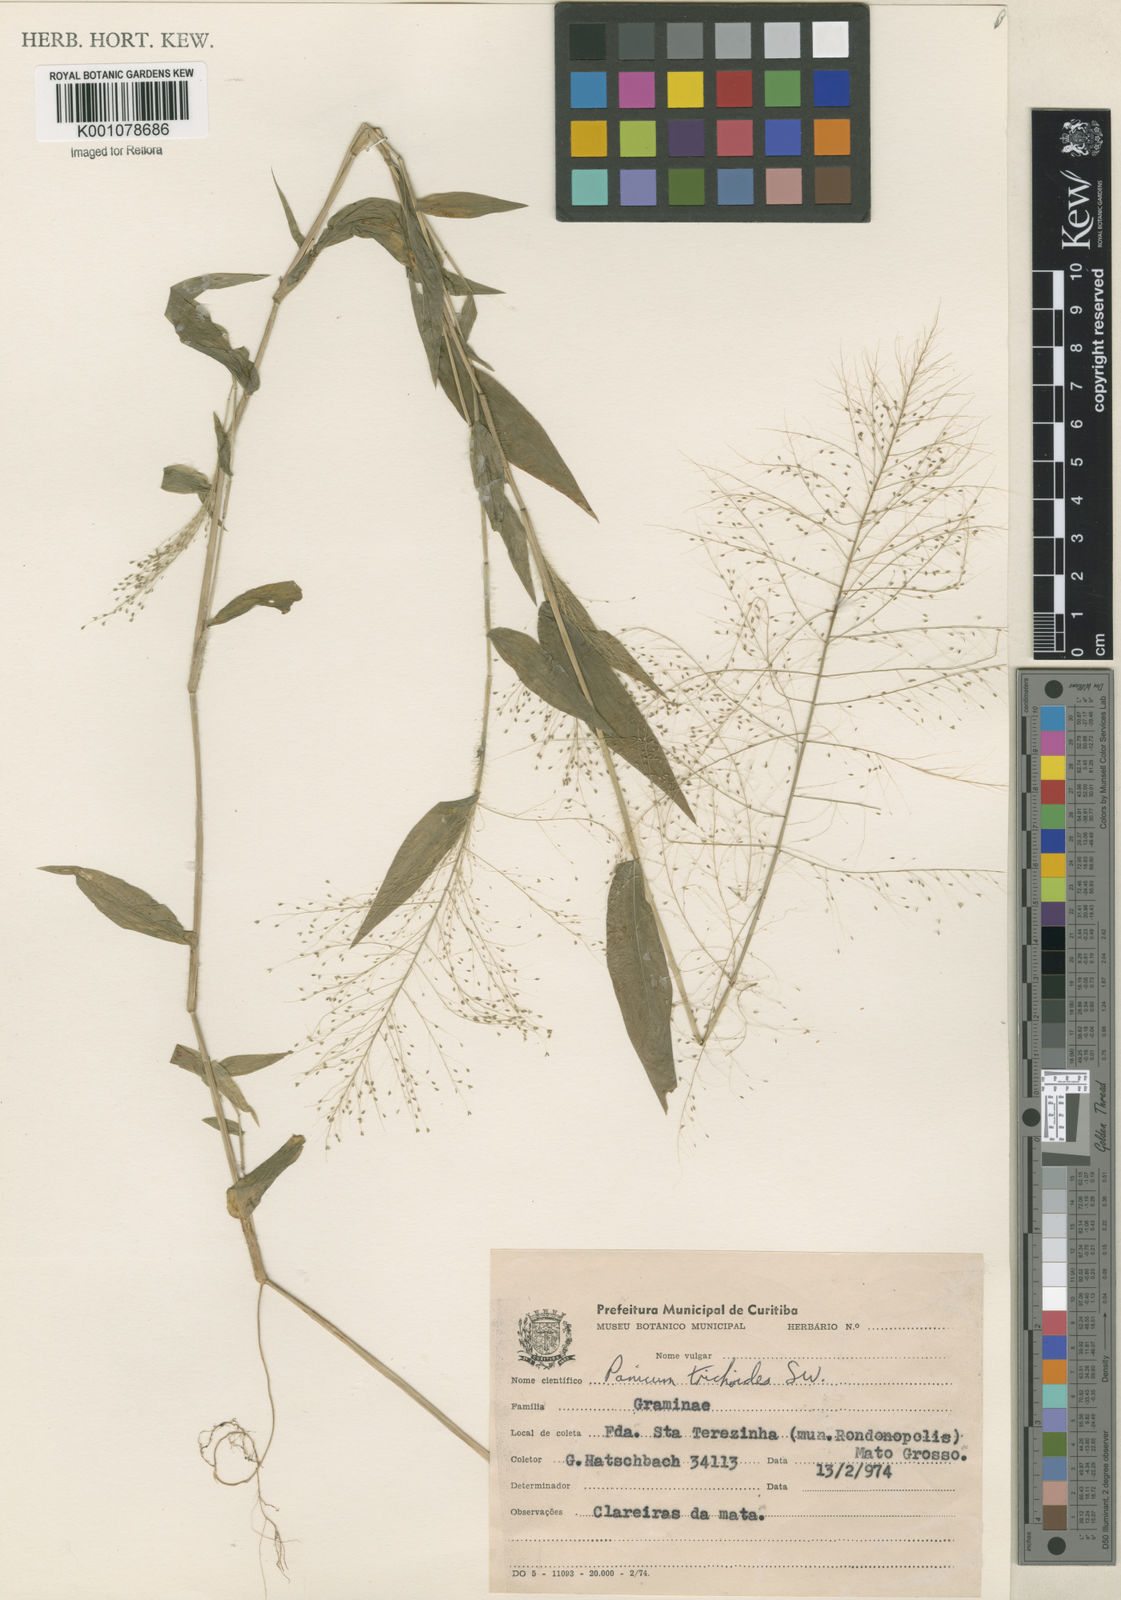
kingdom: Plantae
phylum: Tracheophyta
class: Liliopsida
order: Poales
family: Poaceae
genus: Panicum
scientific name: Panicum trichoides
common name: Tickle grass
